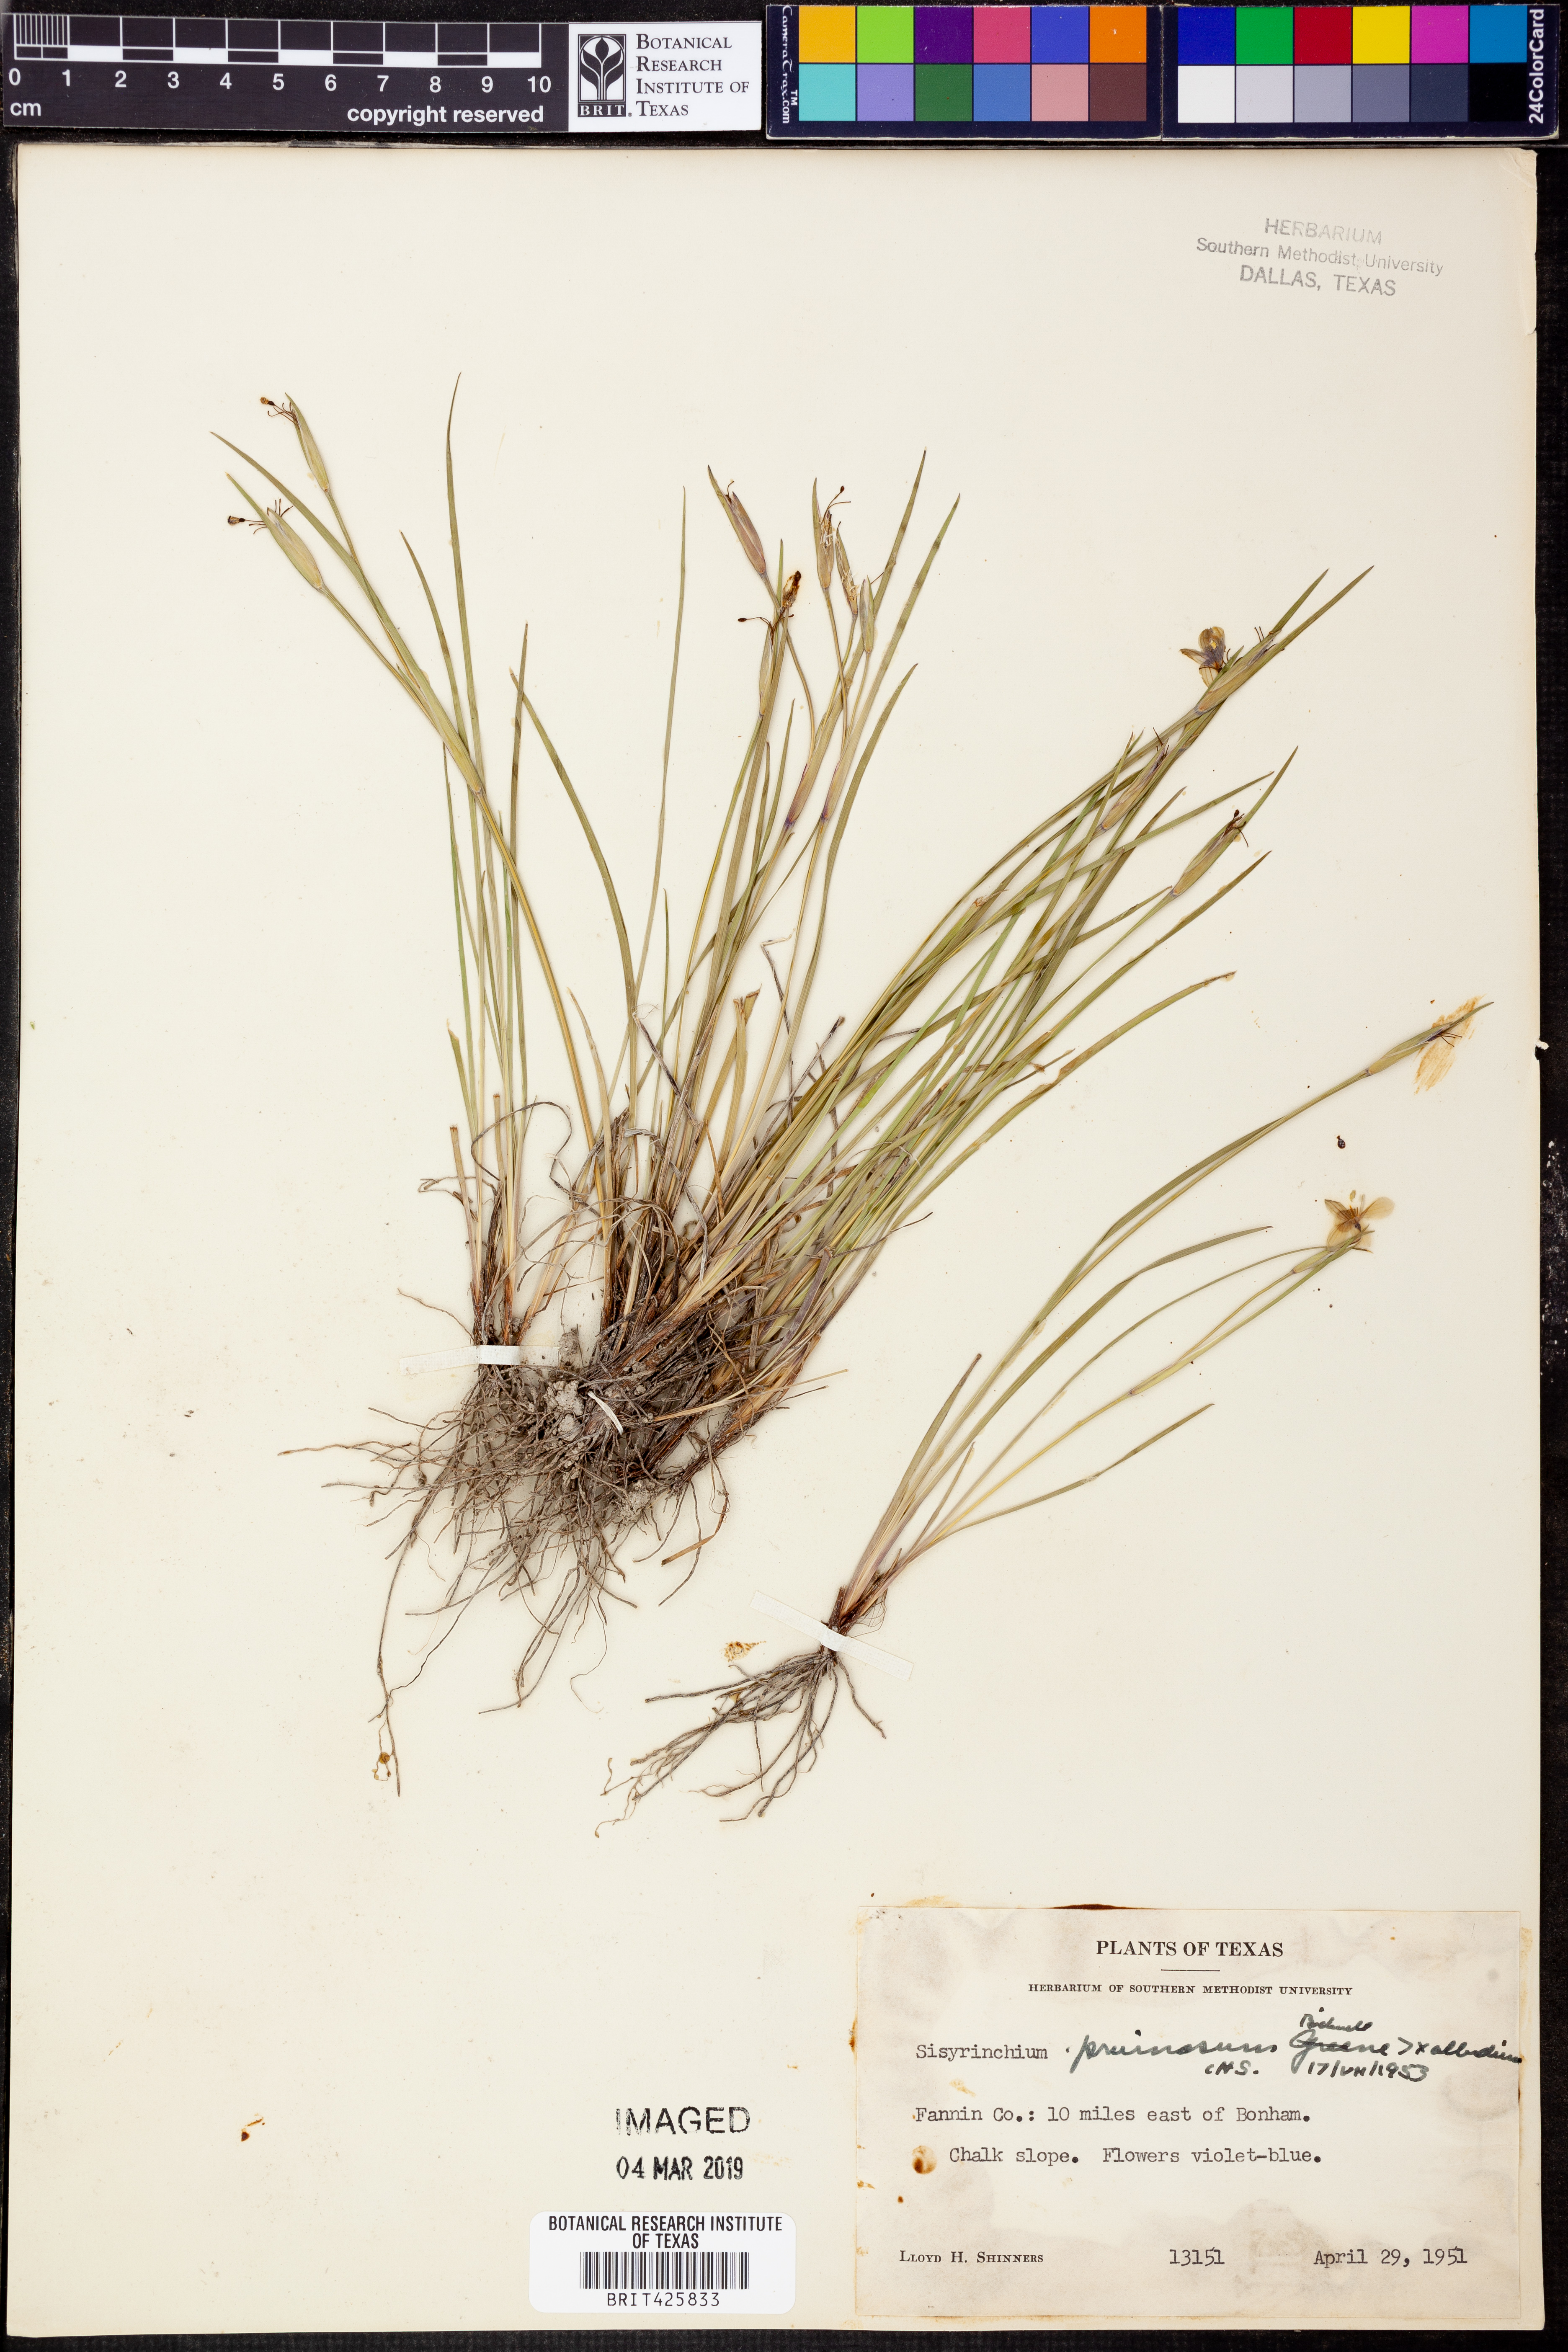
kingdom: Plantae
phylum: Tracheophyta
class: Liliopsida
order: Asparagales
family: Iridaceae
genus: Sisyrinchium
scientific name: Sisyrinchium
